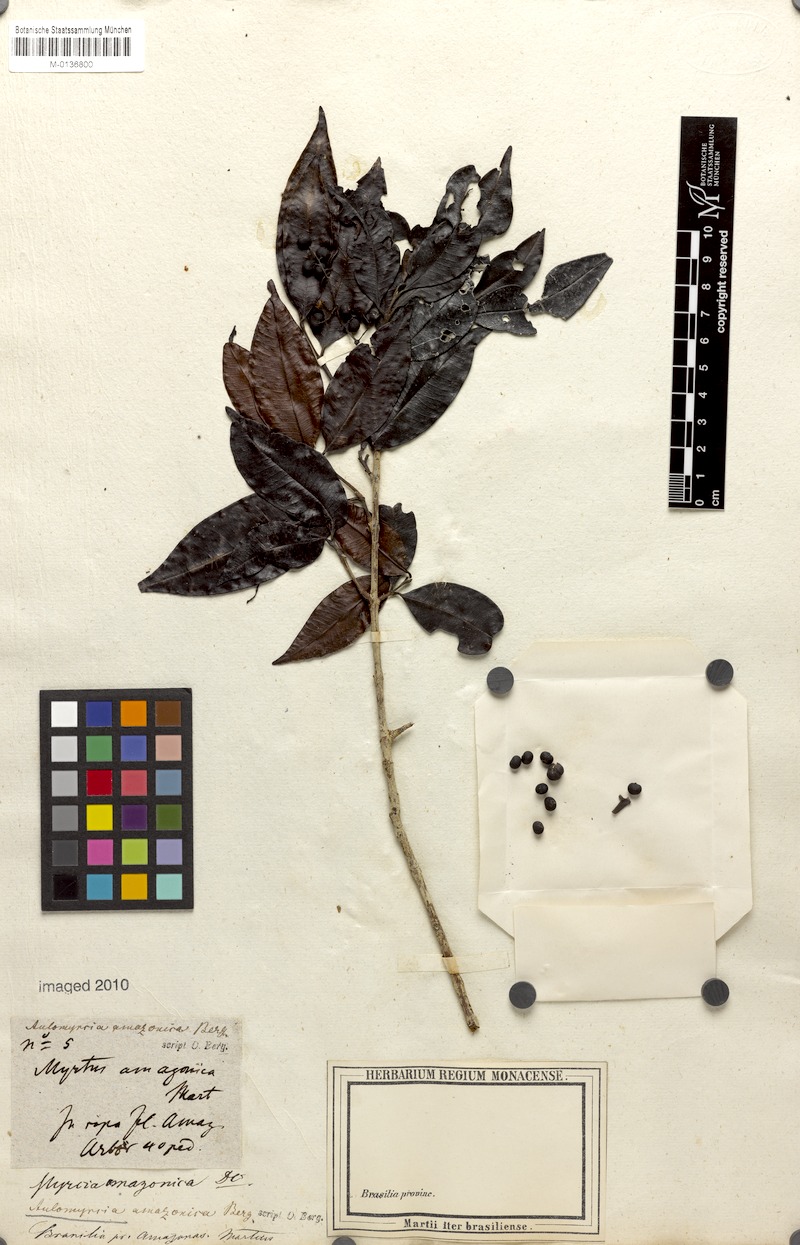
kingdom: Plantae
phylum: Tracheophyta
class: Magnoliopsida
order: Myrtales
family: Myrtaceae
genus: Myrcia
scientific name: Myrcia amazonica
